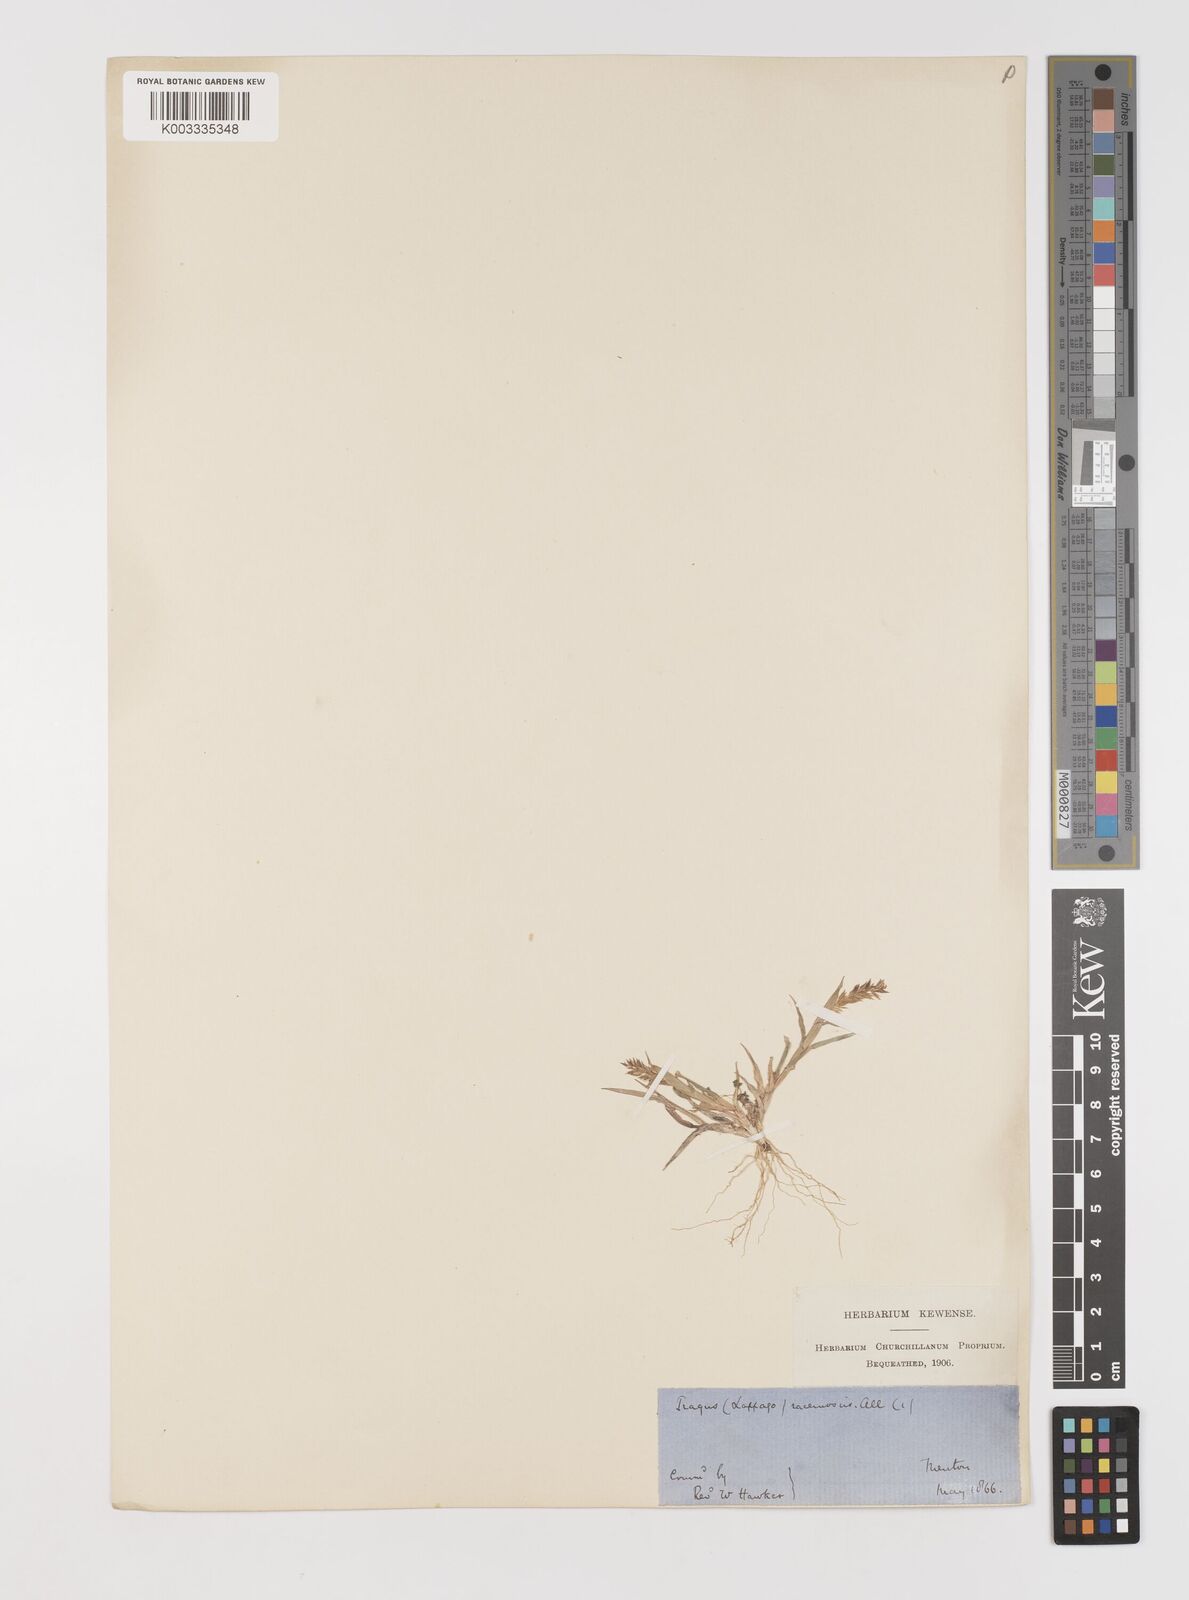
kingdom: Plantae
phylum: Tracheophyta
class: Liliopsida
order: Poales
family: Poaceae
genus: Tragus
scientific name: Tragus racemosus
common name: European bur-grass
